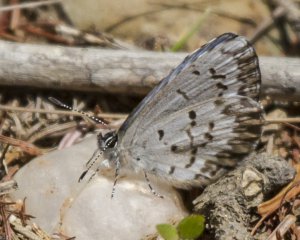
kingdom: Animalia
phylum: Arthropoda
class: Insecta
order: Lepidoptera
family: Lycaenidae
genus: Celastrina
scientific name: Celastrina lucia
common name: Northern Spring Azure
